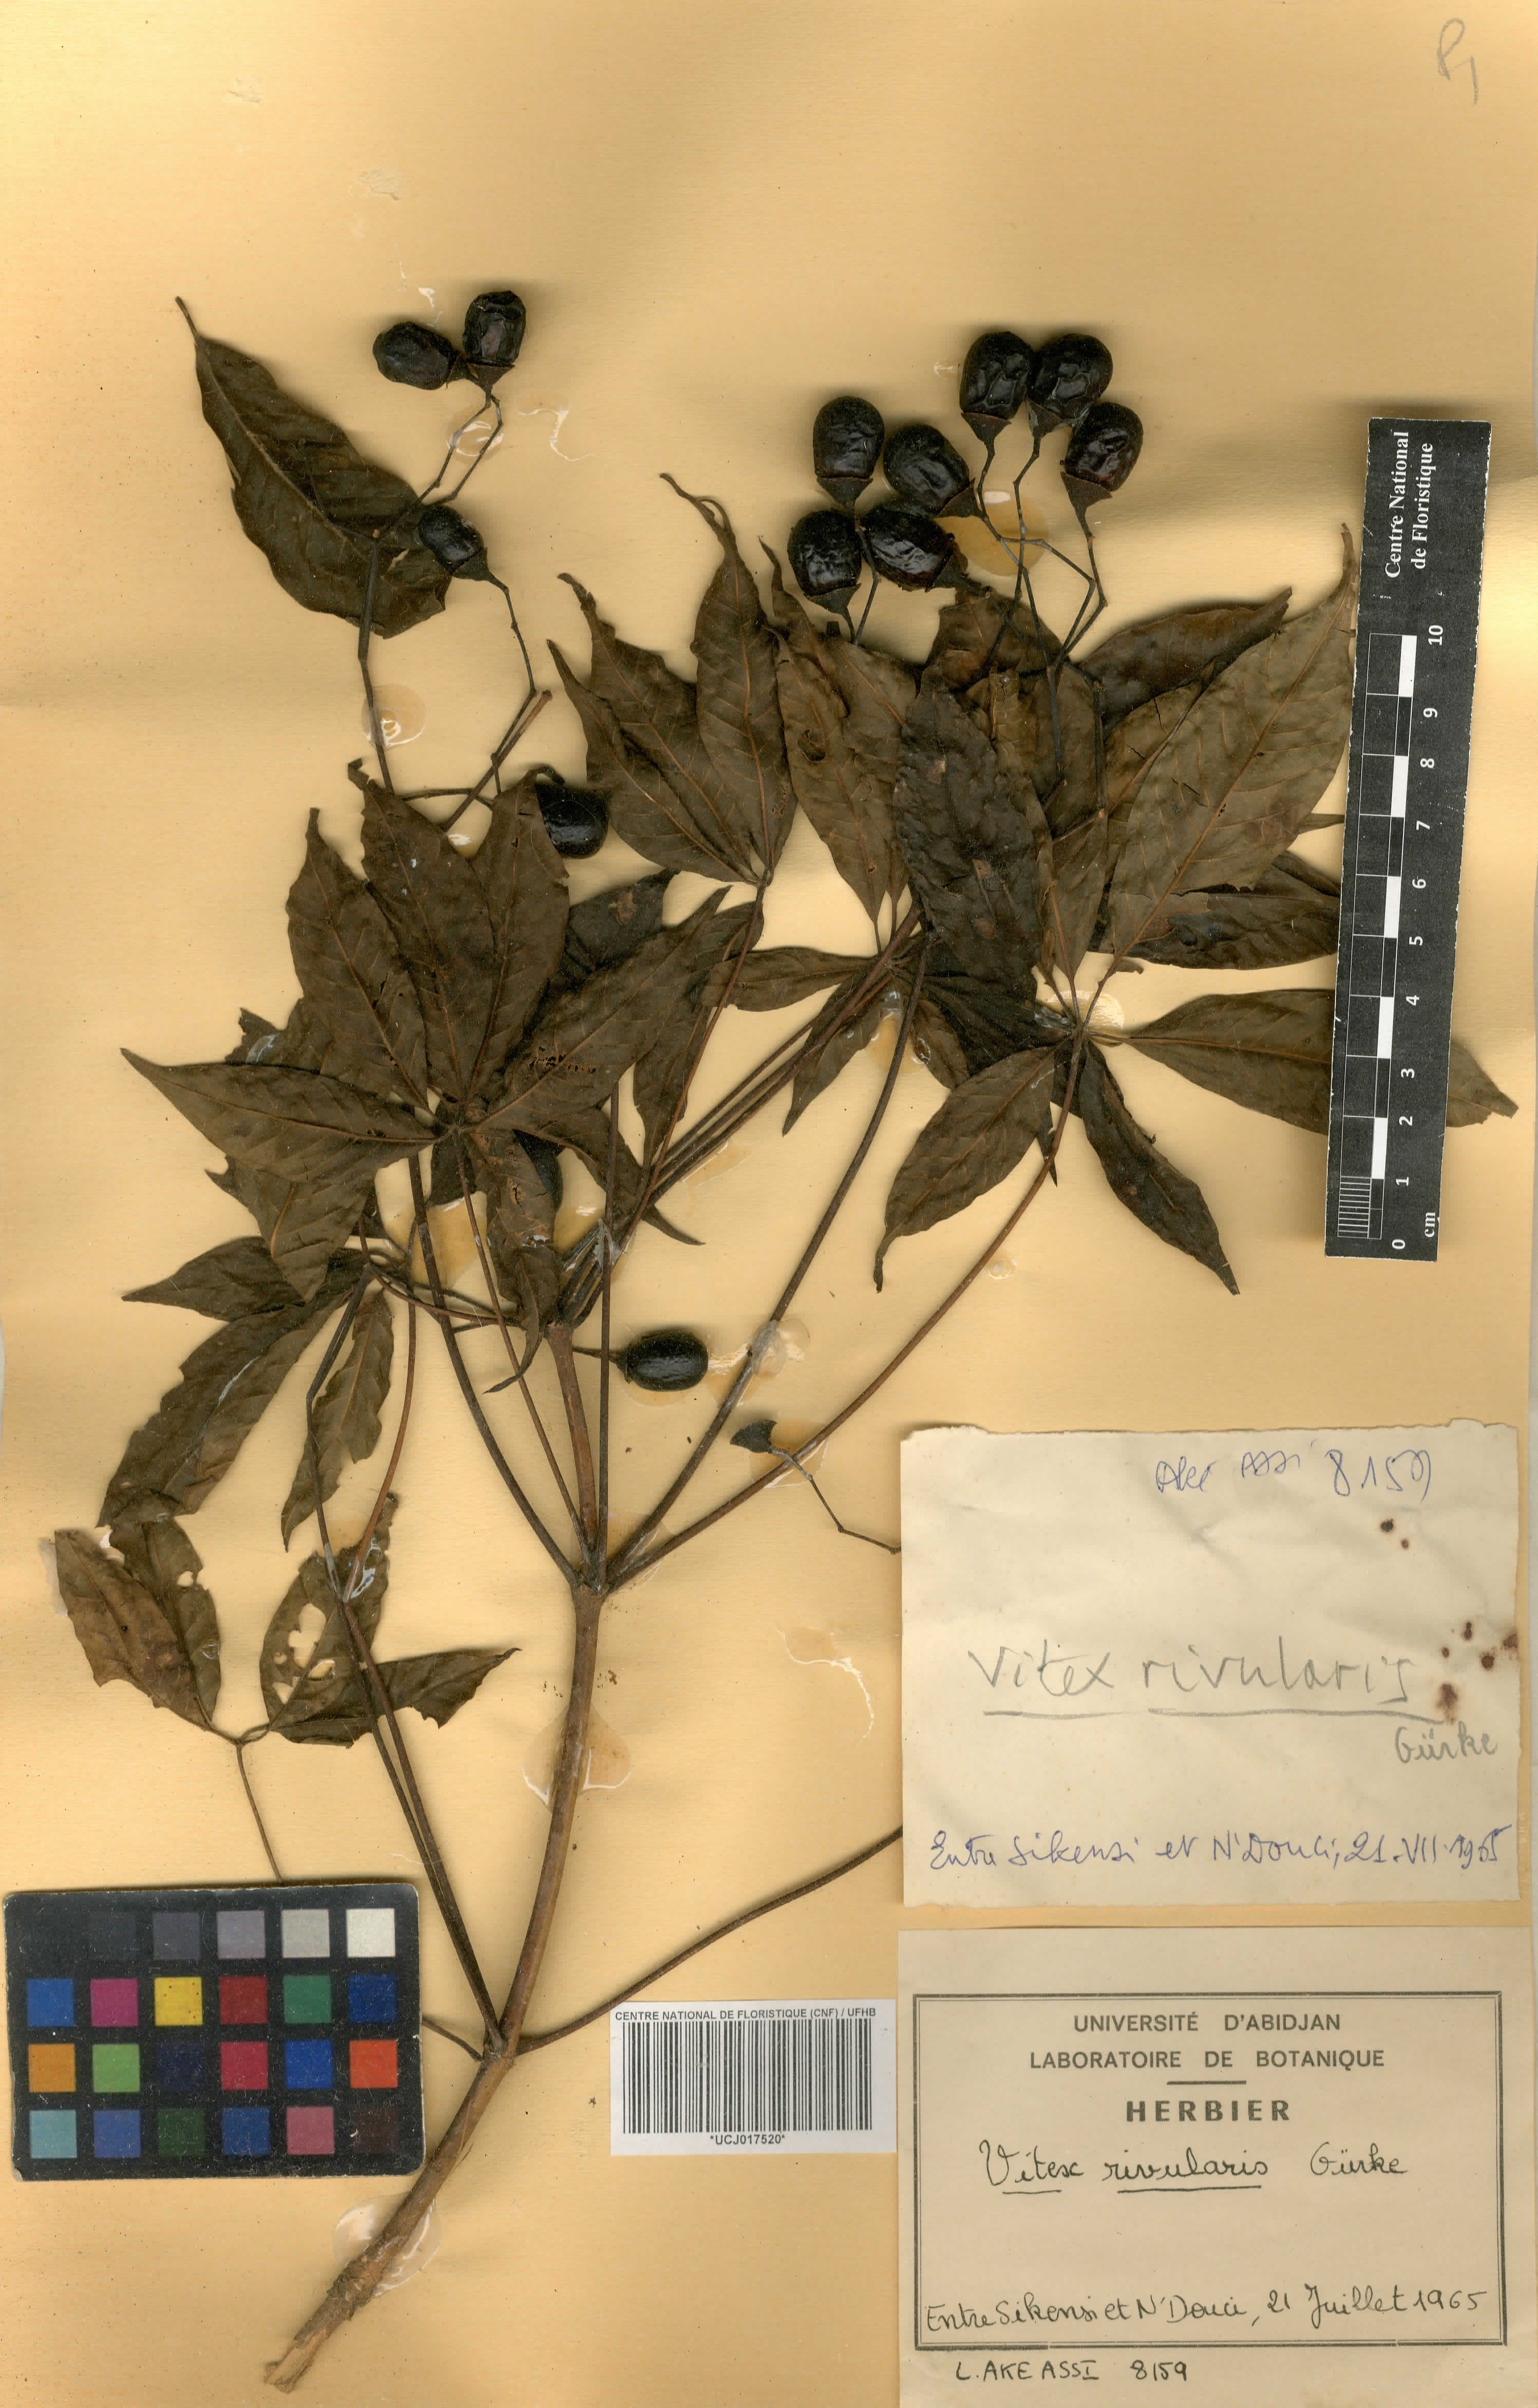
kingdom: Plantae
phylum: Tracheophyta
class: Magnoliopsida
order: Lamiales
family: Lamiaceae
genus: Vitex
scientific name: Vitex rivularis
